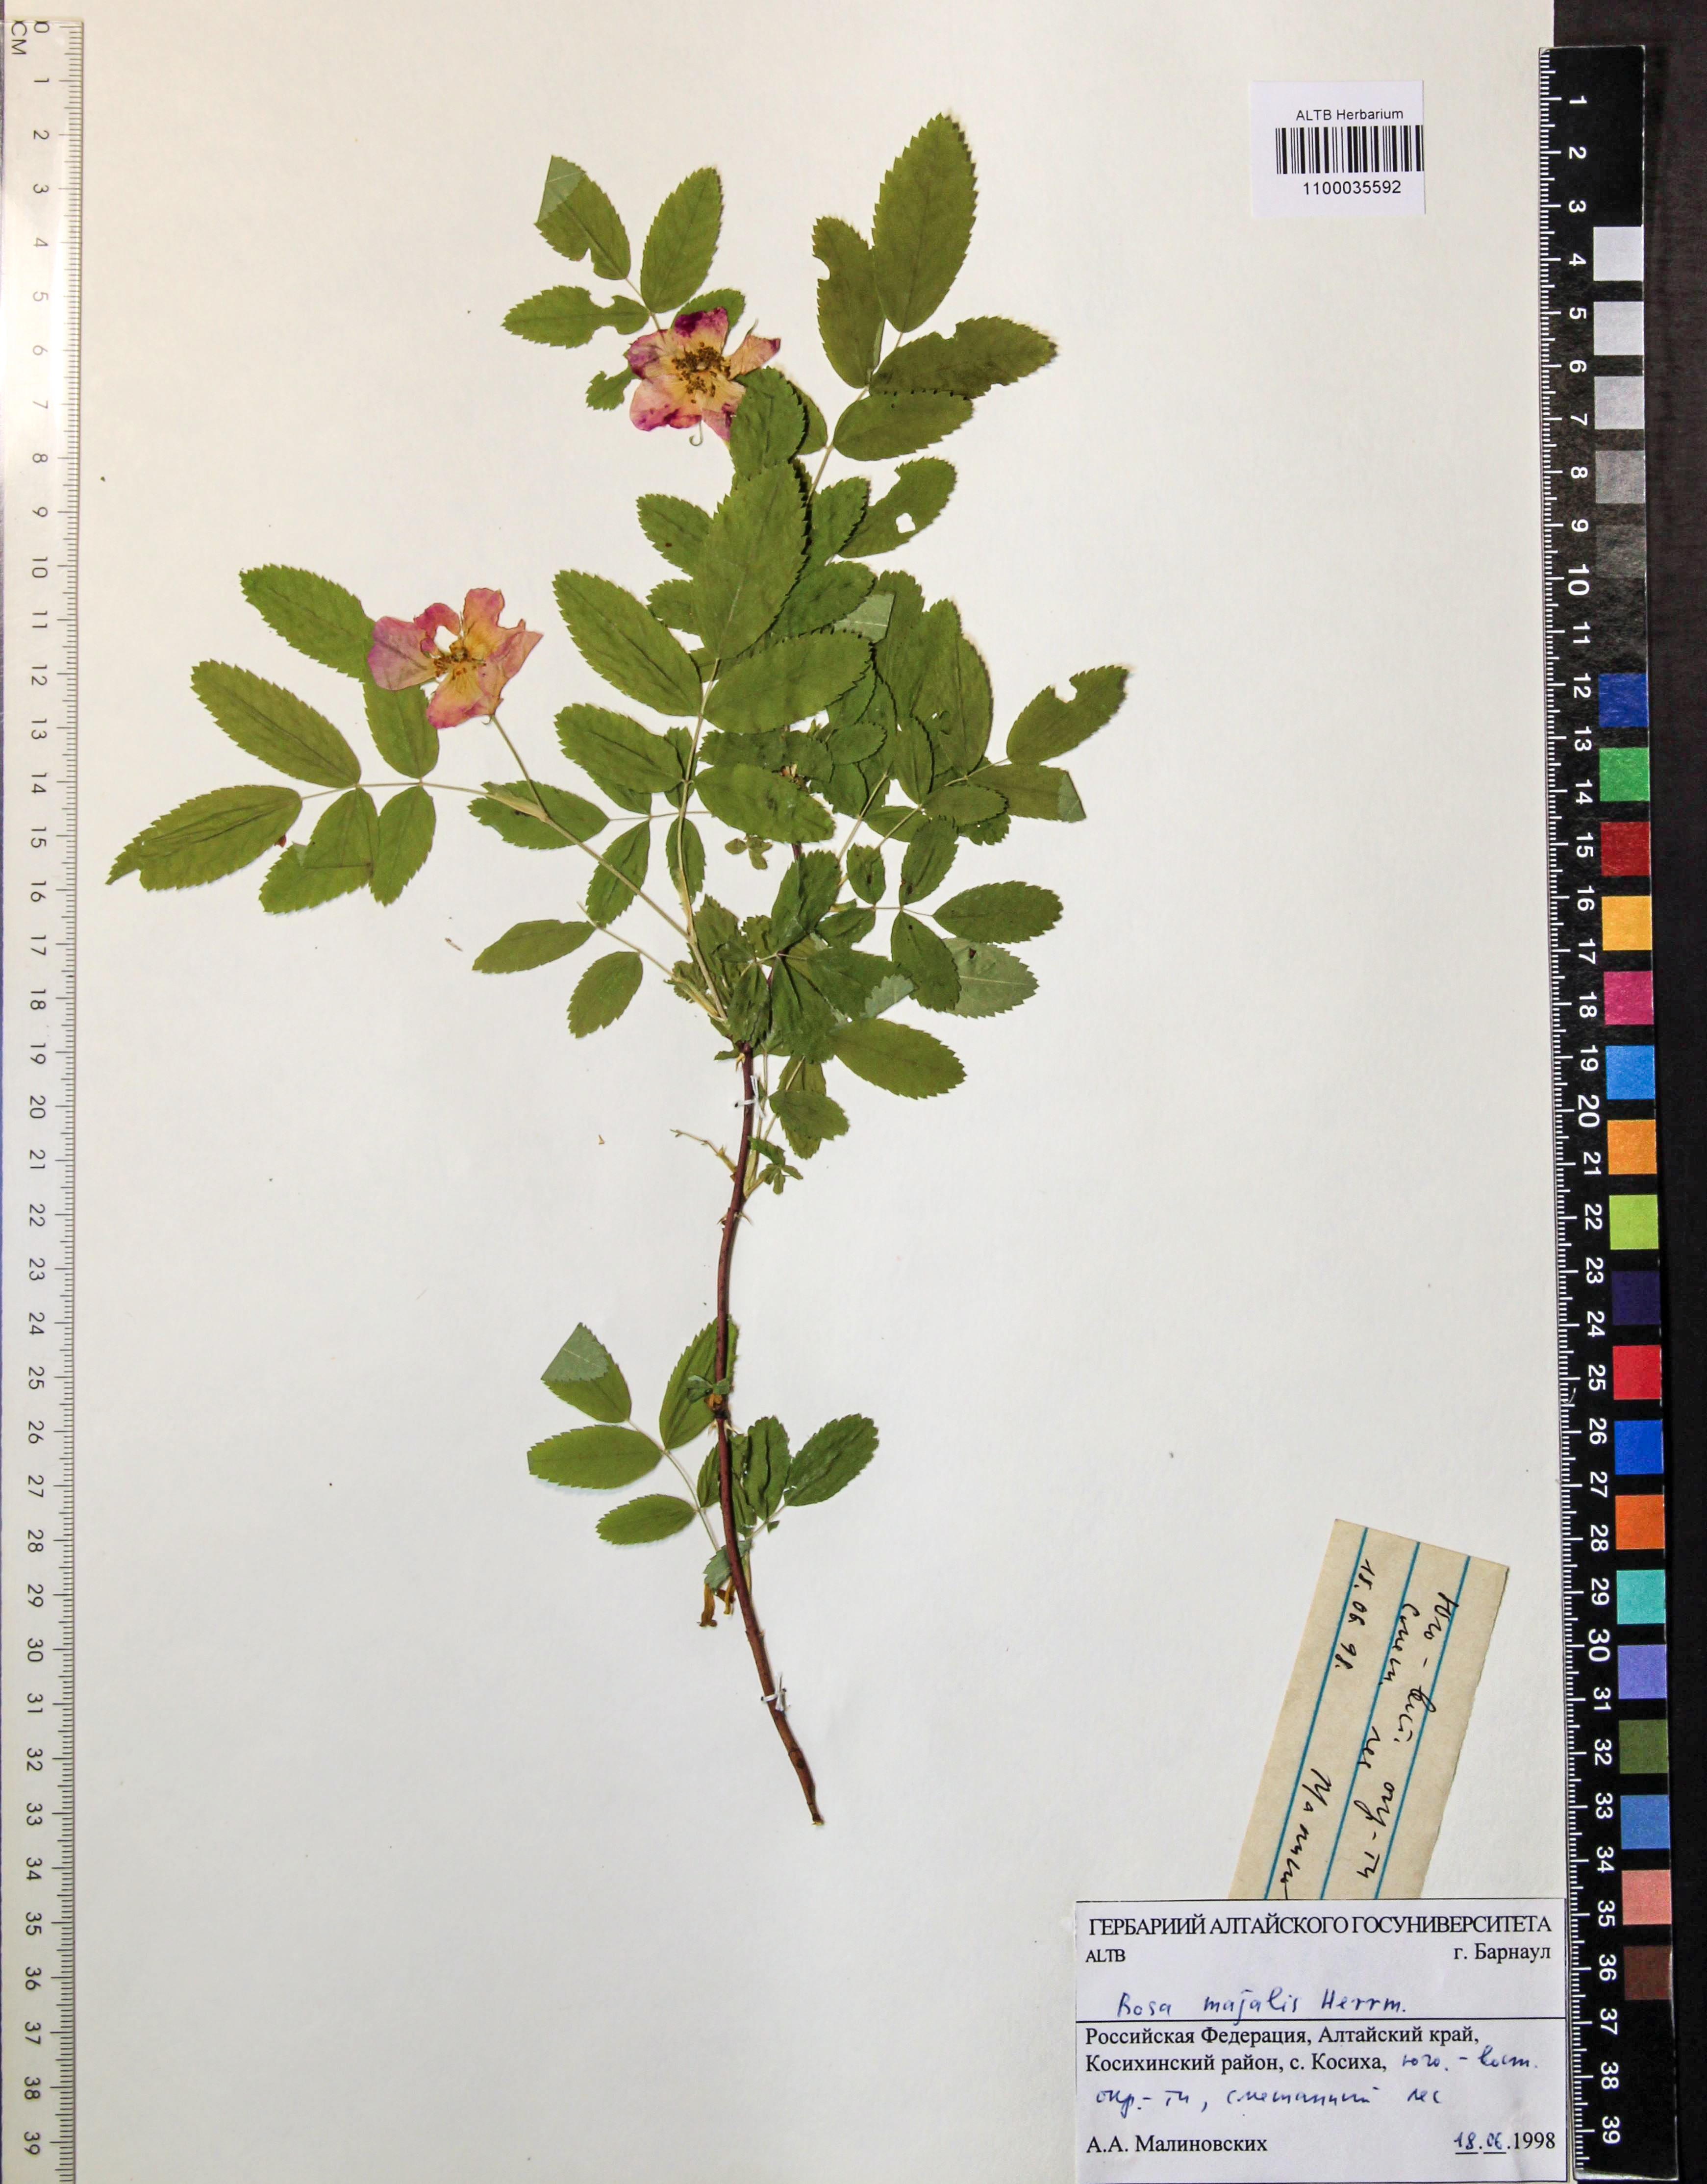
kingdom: Plantae
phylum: Tracheophyta
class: Magnoliopsida
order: Rosales
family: Rosaceae
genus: Rosa
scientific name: Rosa majalis
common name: Cinnamon rose
